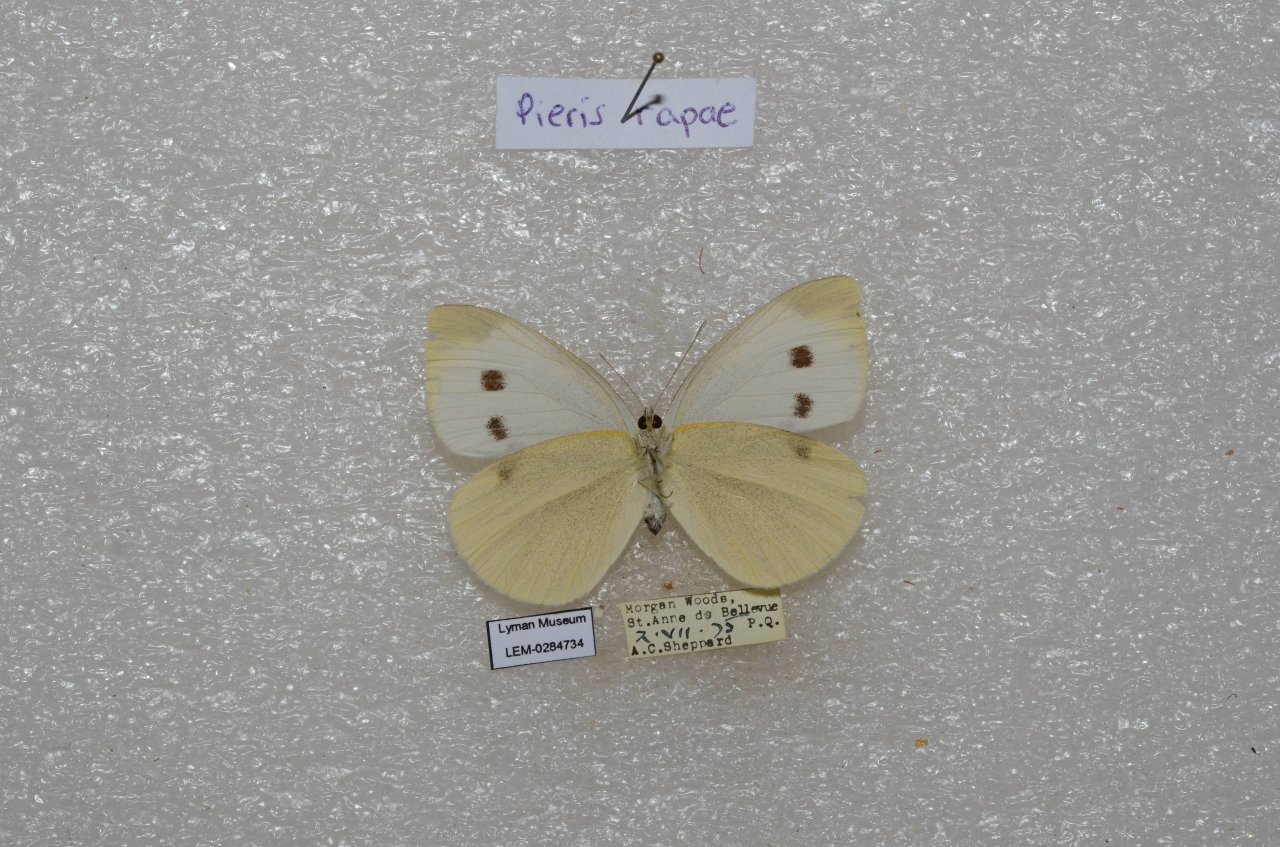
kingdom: Animalia
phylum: Arthropoda
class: Insecta
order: Lepidoptera
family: Pieridae
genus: Pieris
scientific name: Pieris rapae
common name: Cabbage White
